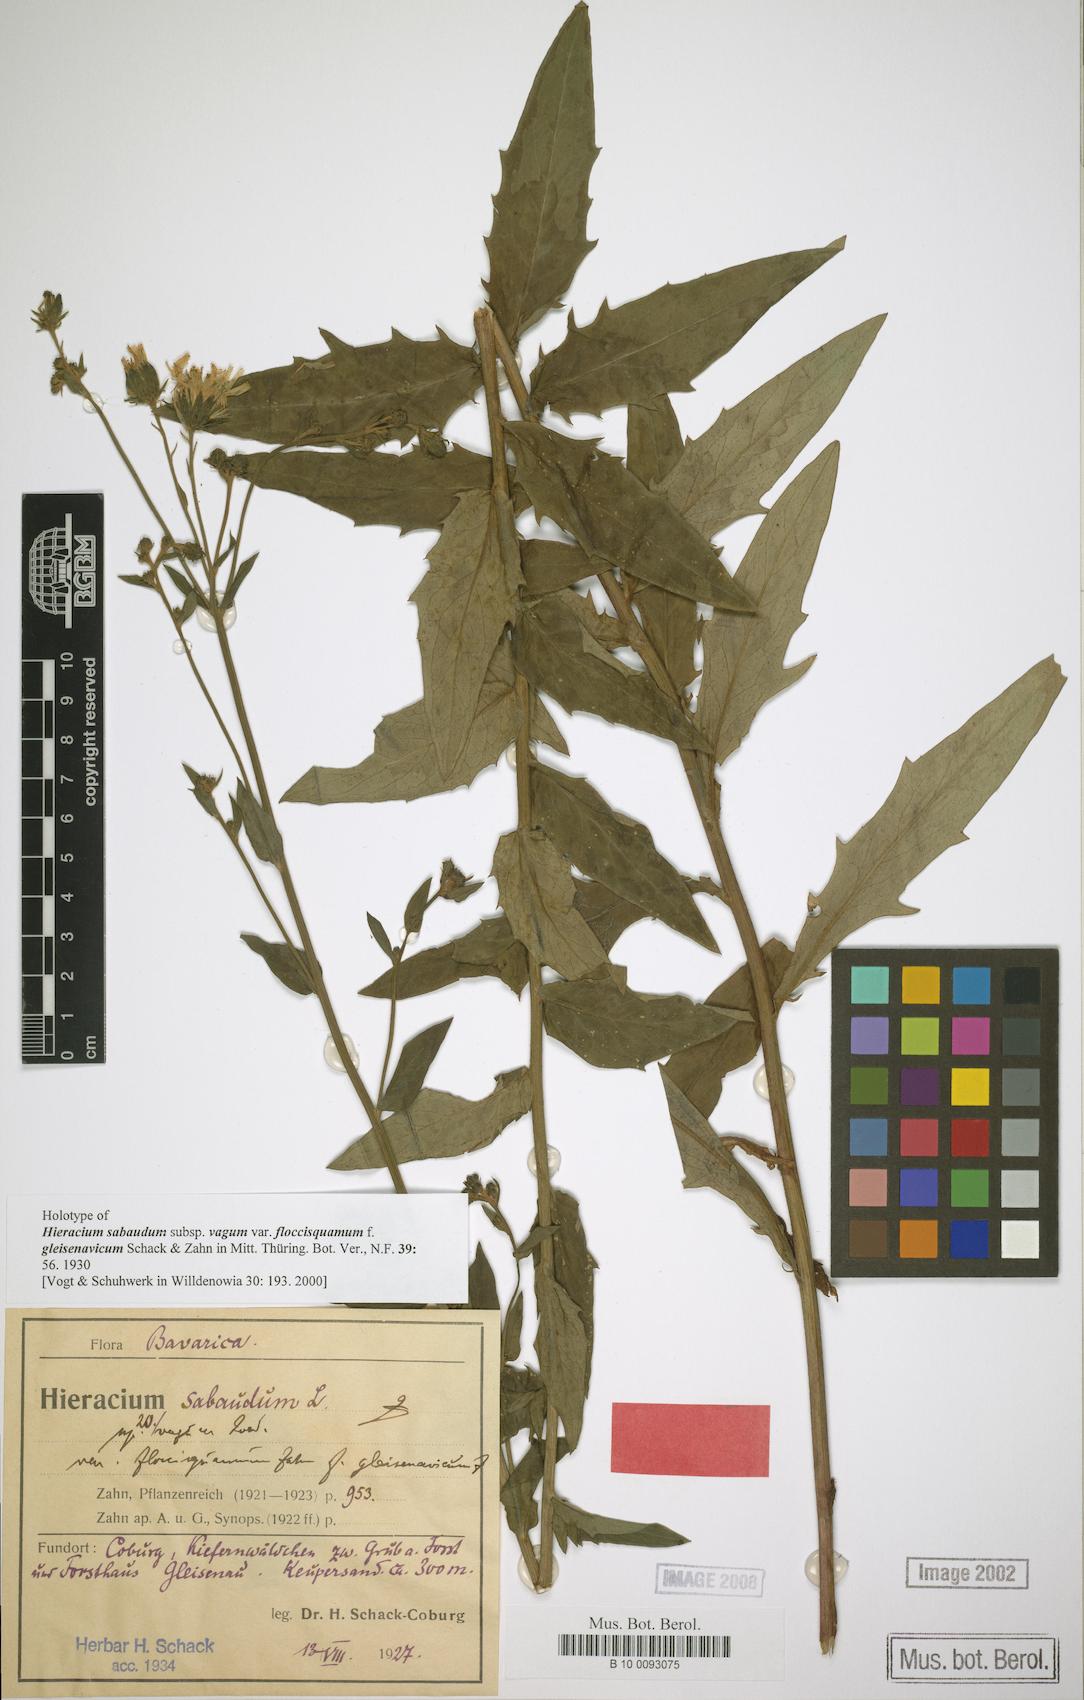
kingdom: Plantae
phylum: Tracheophyta
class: Magnoliopsida
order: Asterales
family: Asteraceae
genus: Hieracium
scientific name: Hieracium sabaudum
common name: New england hawkweed
